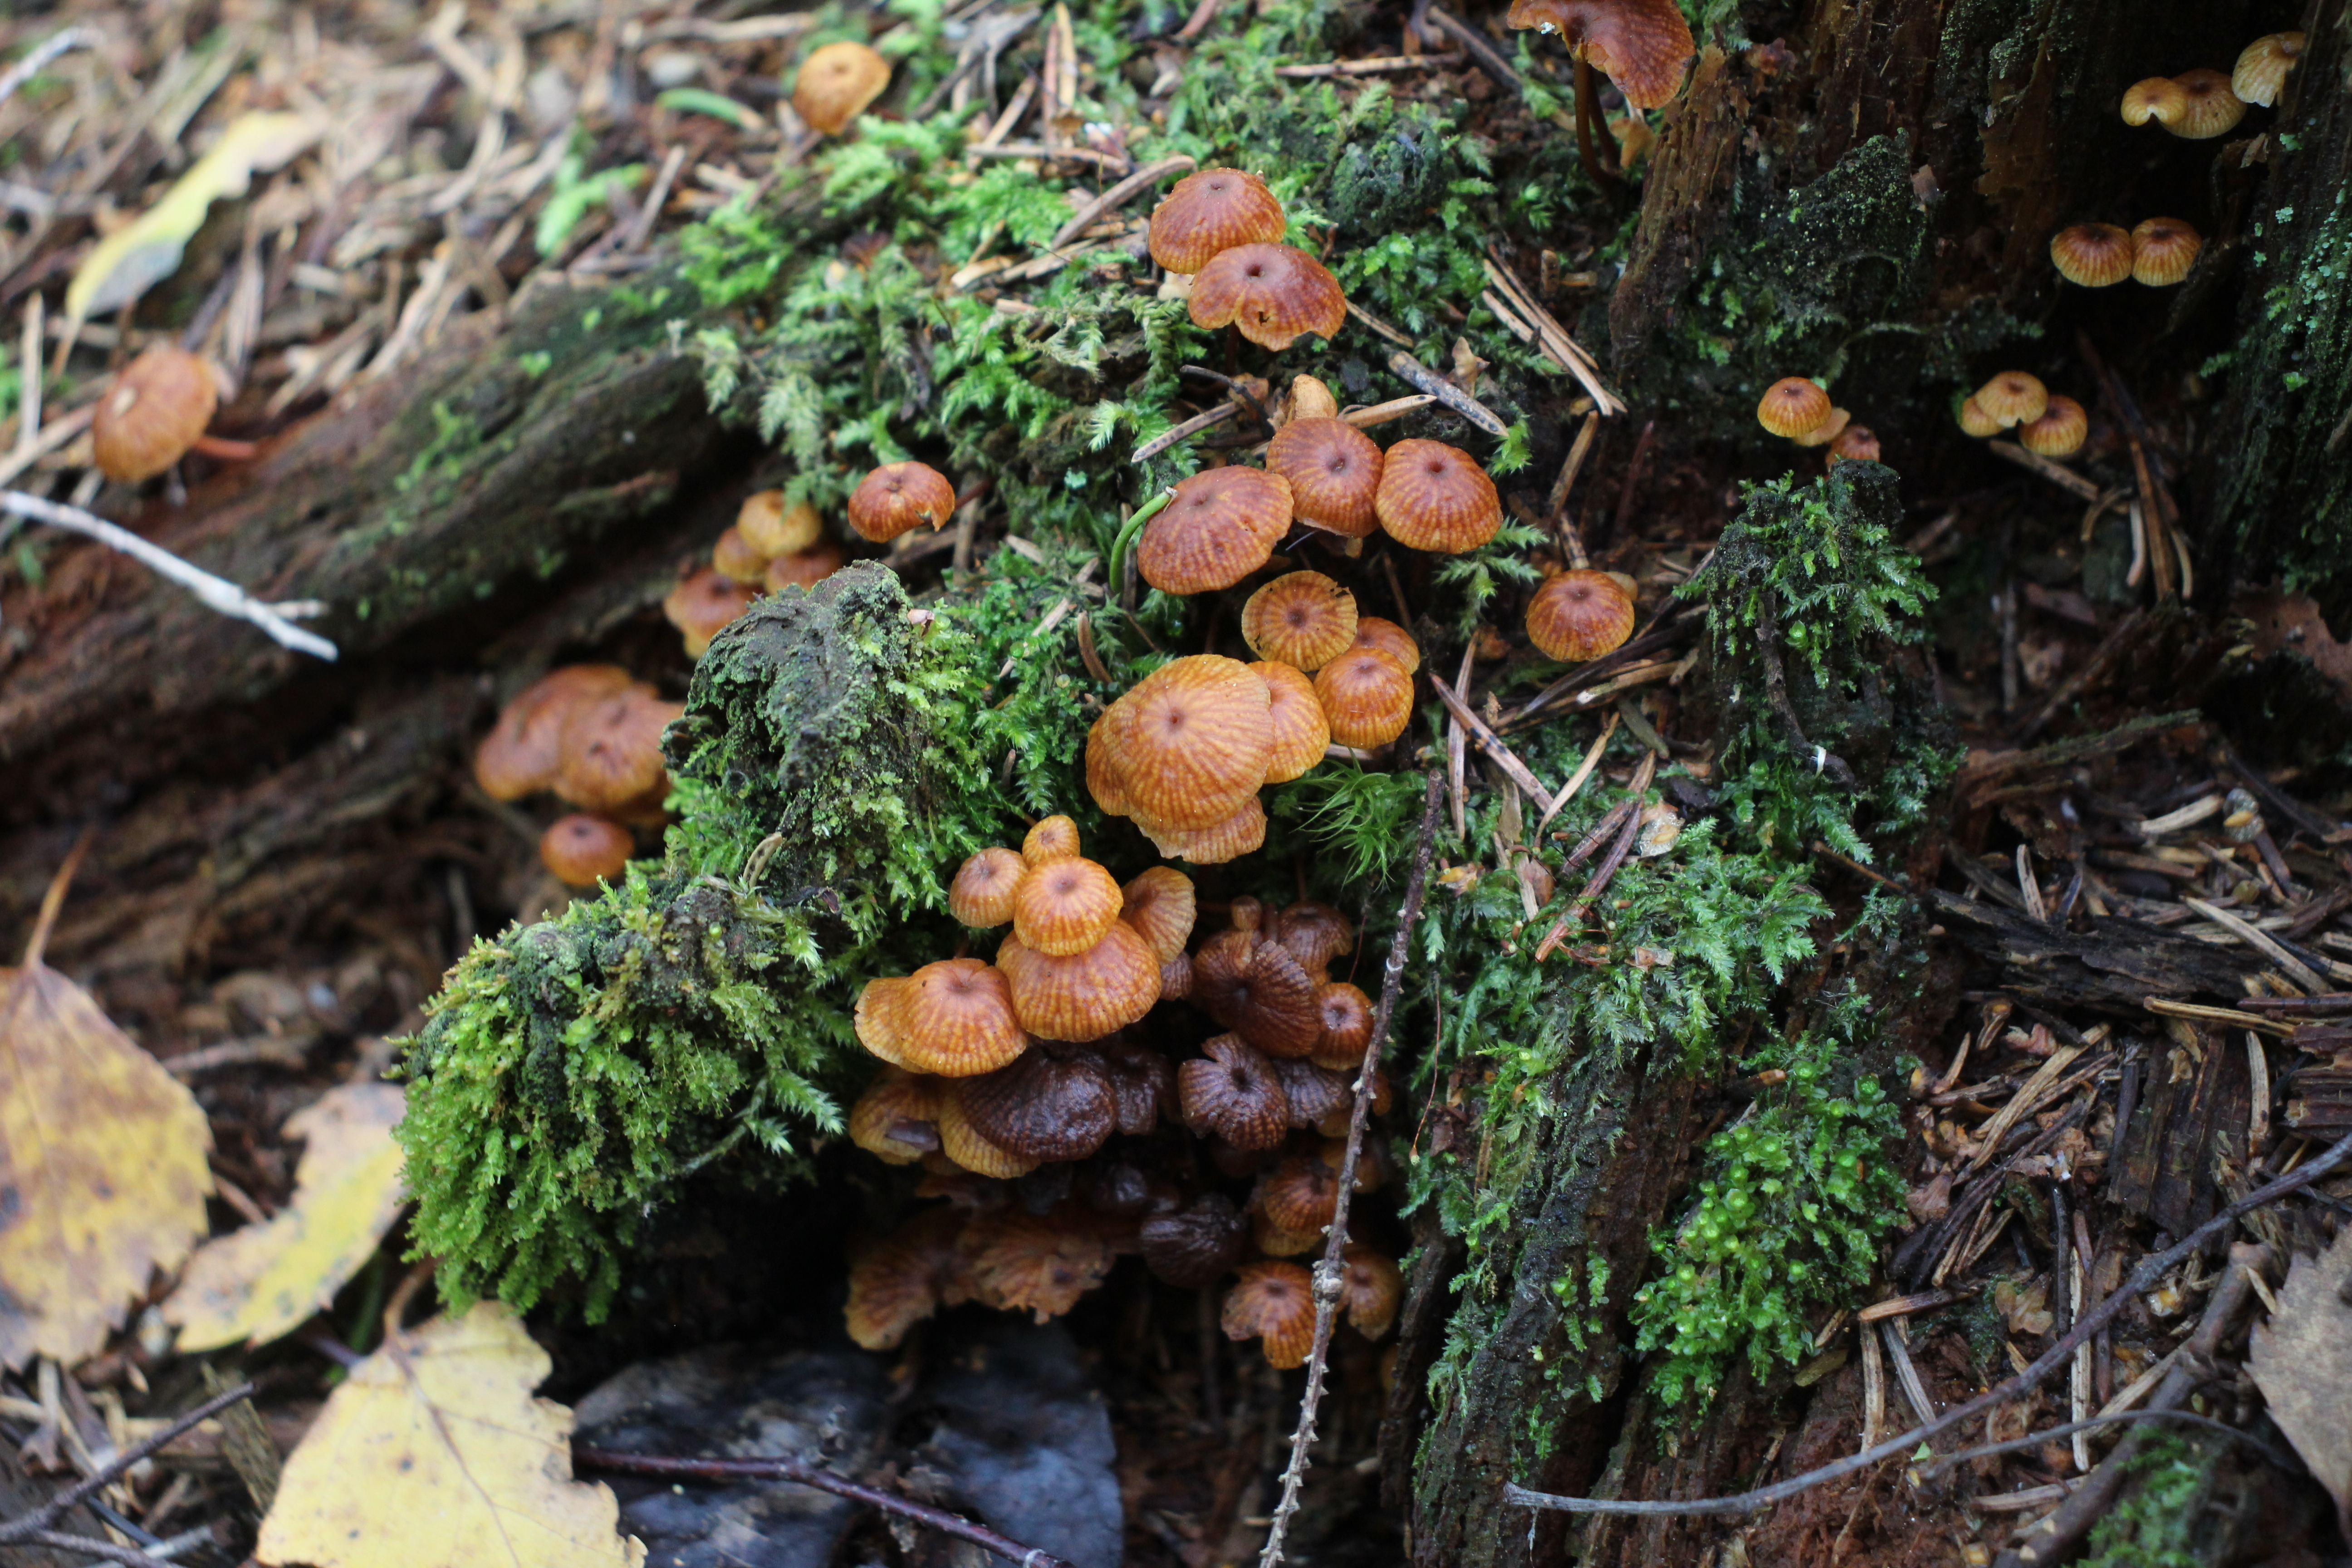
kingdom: Fungi
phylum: Basidiomycota
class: Agaricomycetes
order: Agaricales
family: Mycenaceae
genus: Xeromphalina
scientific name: Xeromphalina campanella
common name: Pinewood gingertail
